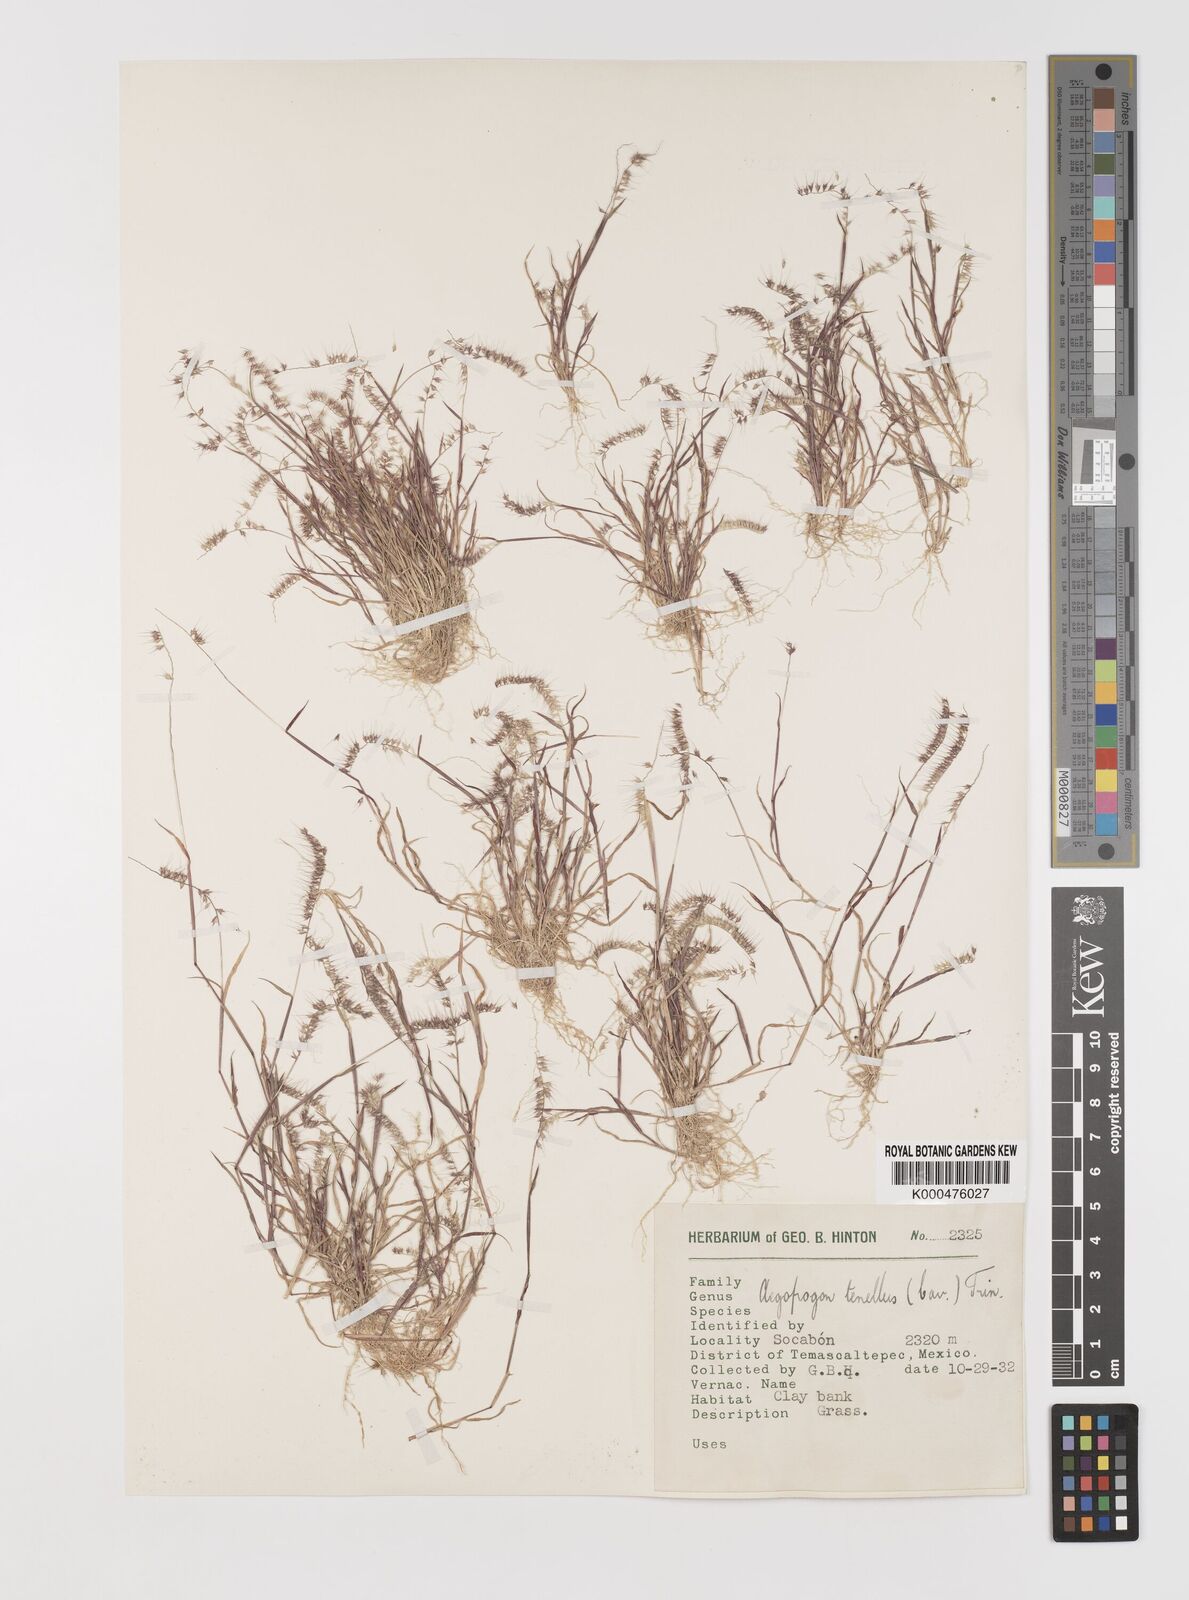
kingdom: Plantae
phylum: Tracheophyta
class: Liliopsida
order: Poales
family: Poaceae
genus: Muhlenbergia
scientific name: Muhlenbergia uniseta
